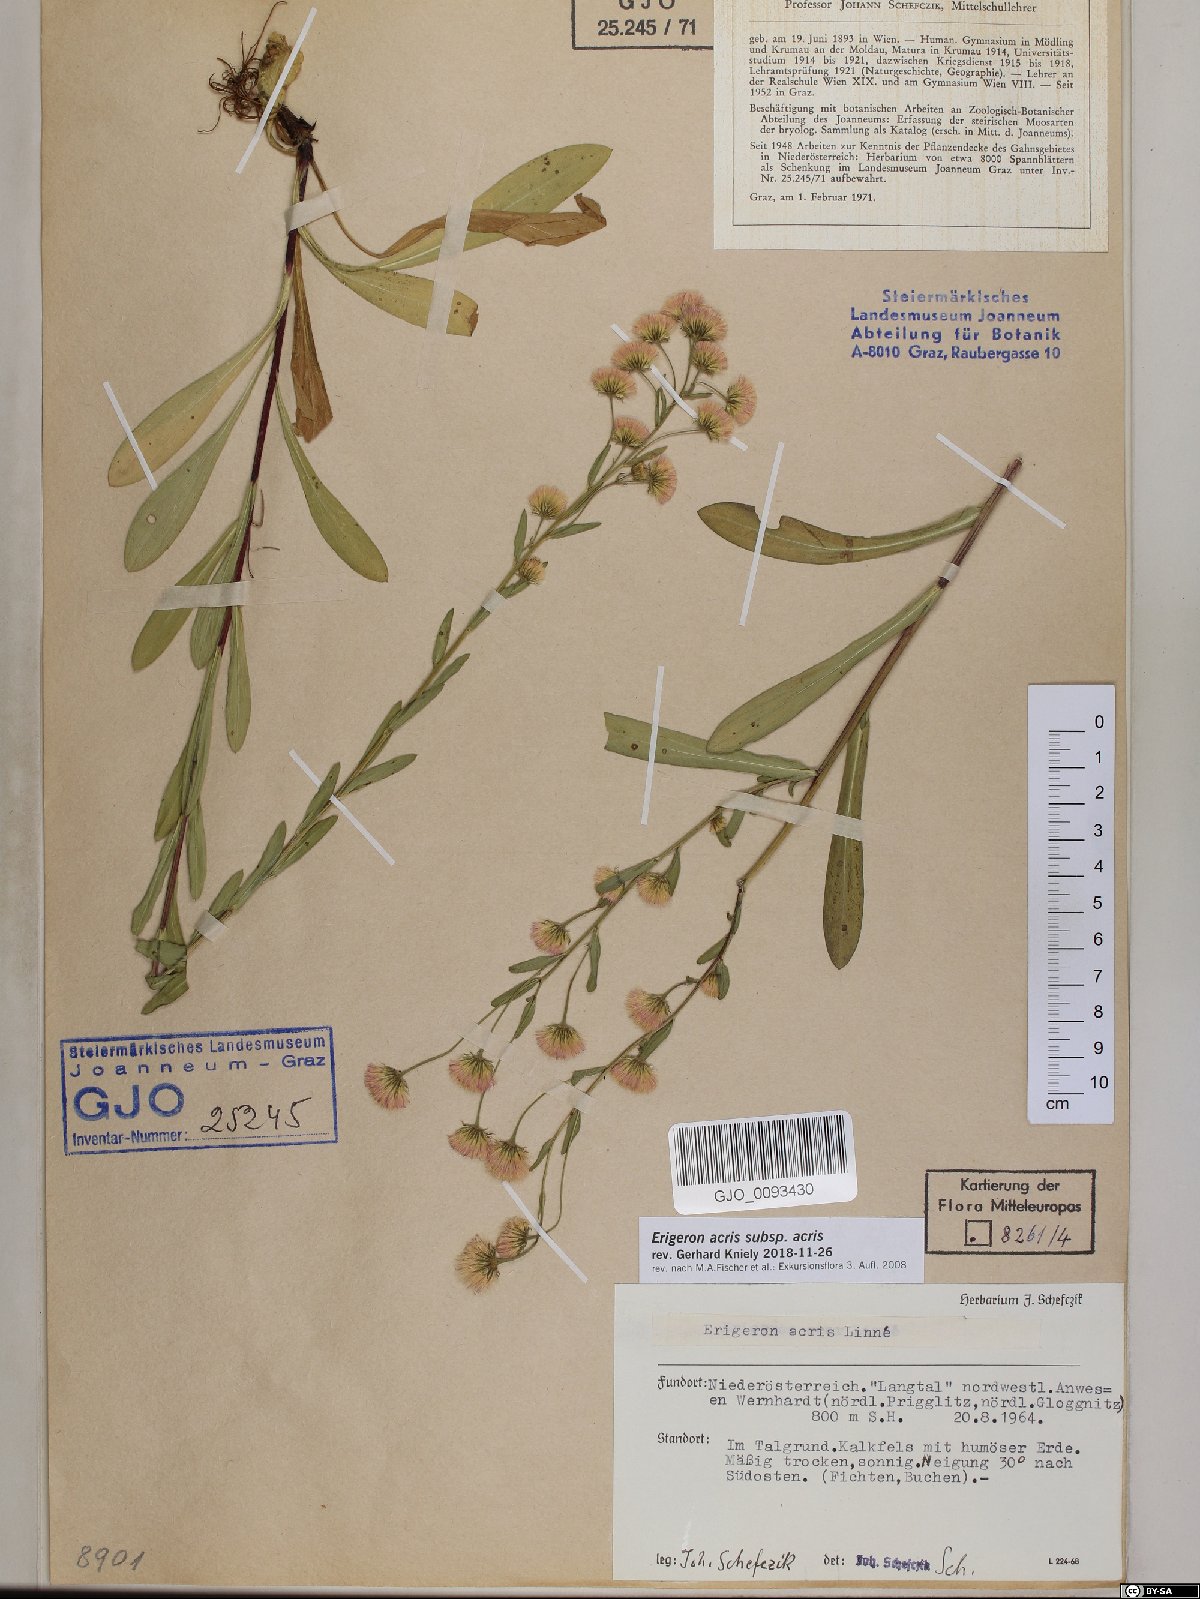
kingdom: Plantae
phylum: Tracheophyta
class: Magnoliopsida
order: Asterales
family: Asteraceae
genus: Erigeron
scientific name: Erigeron acris
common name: Blue fleabane
